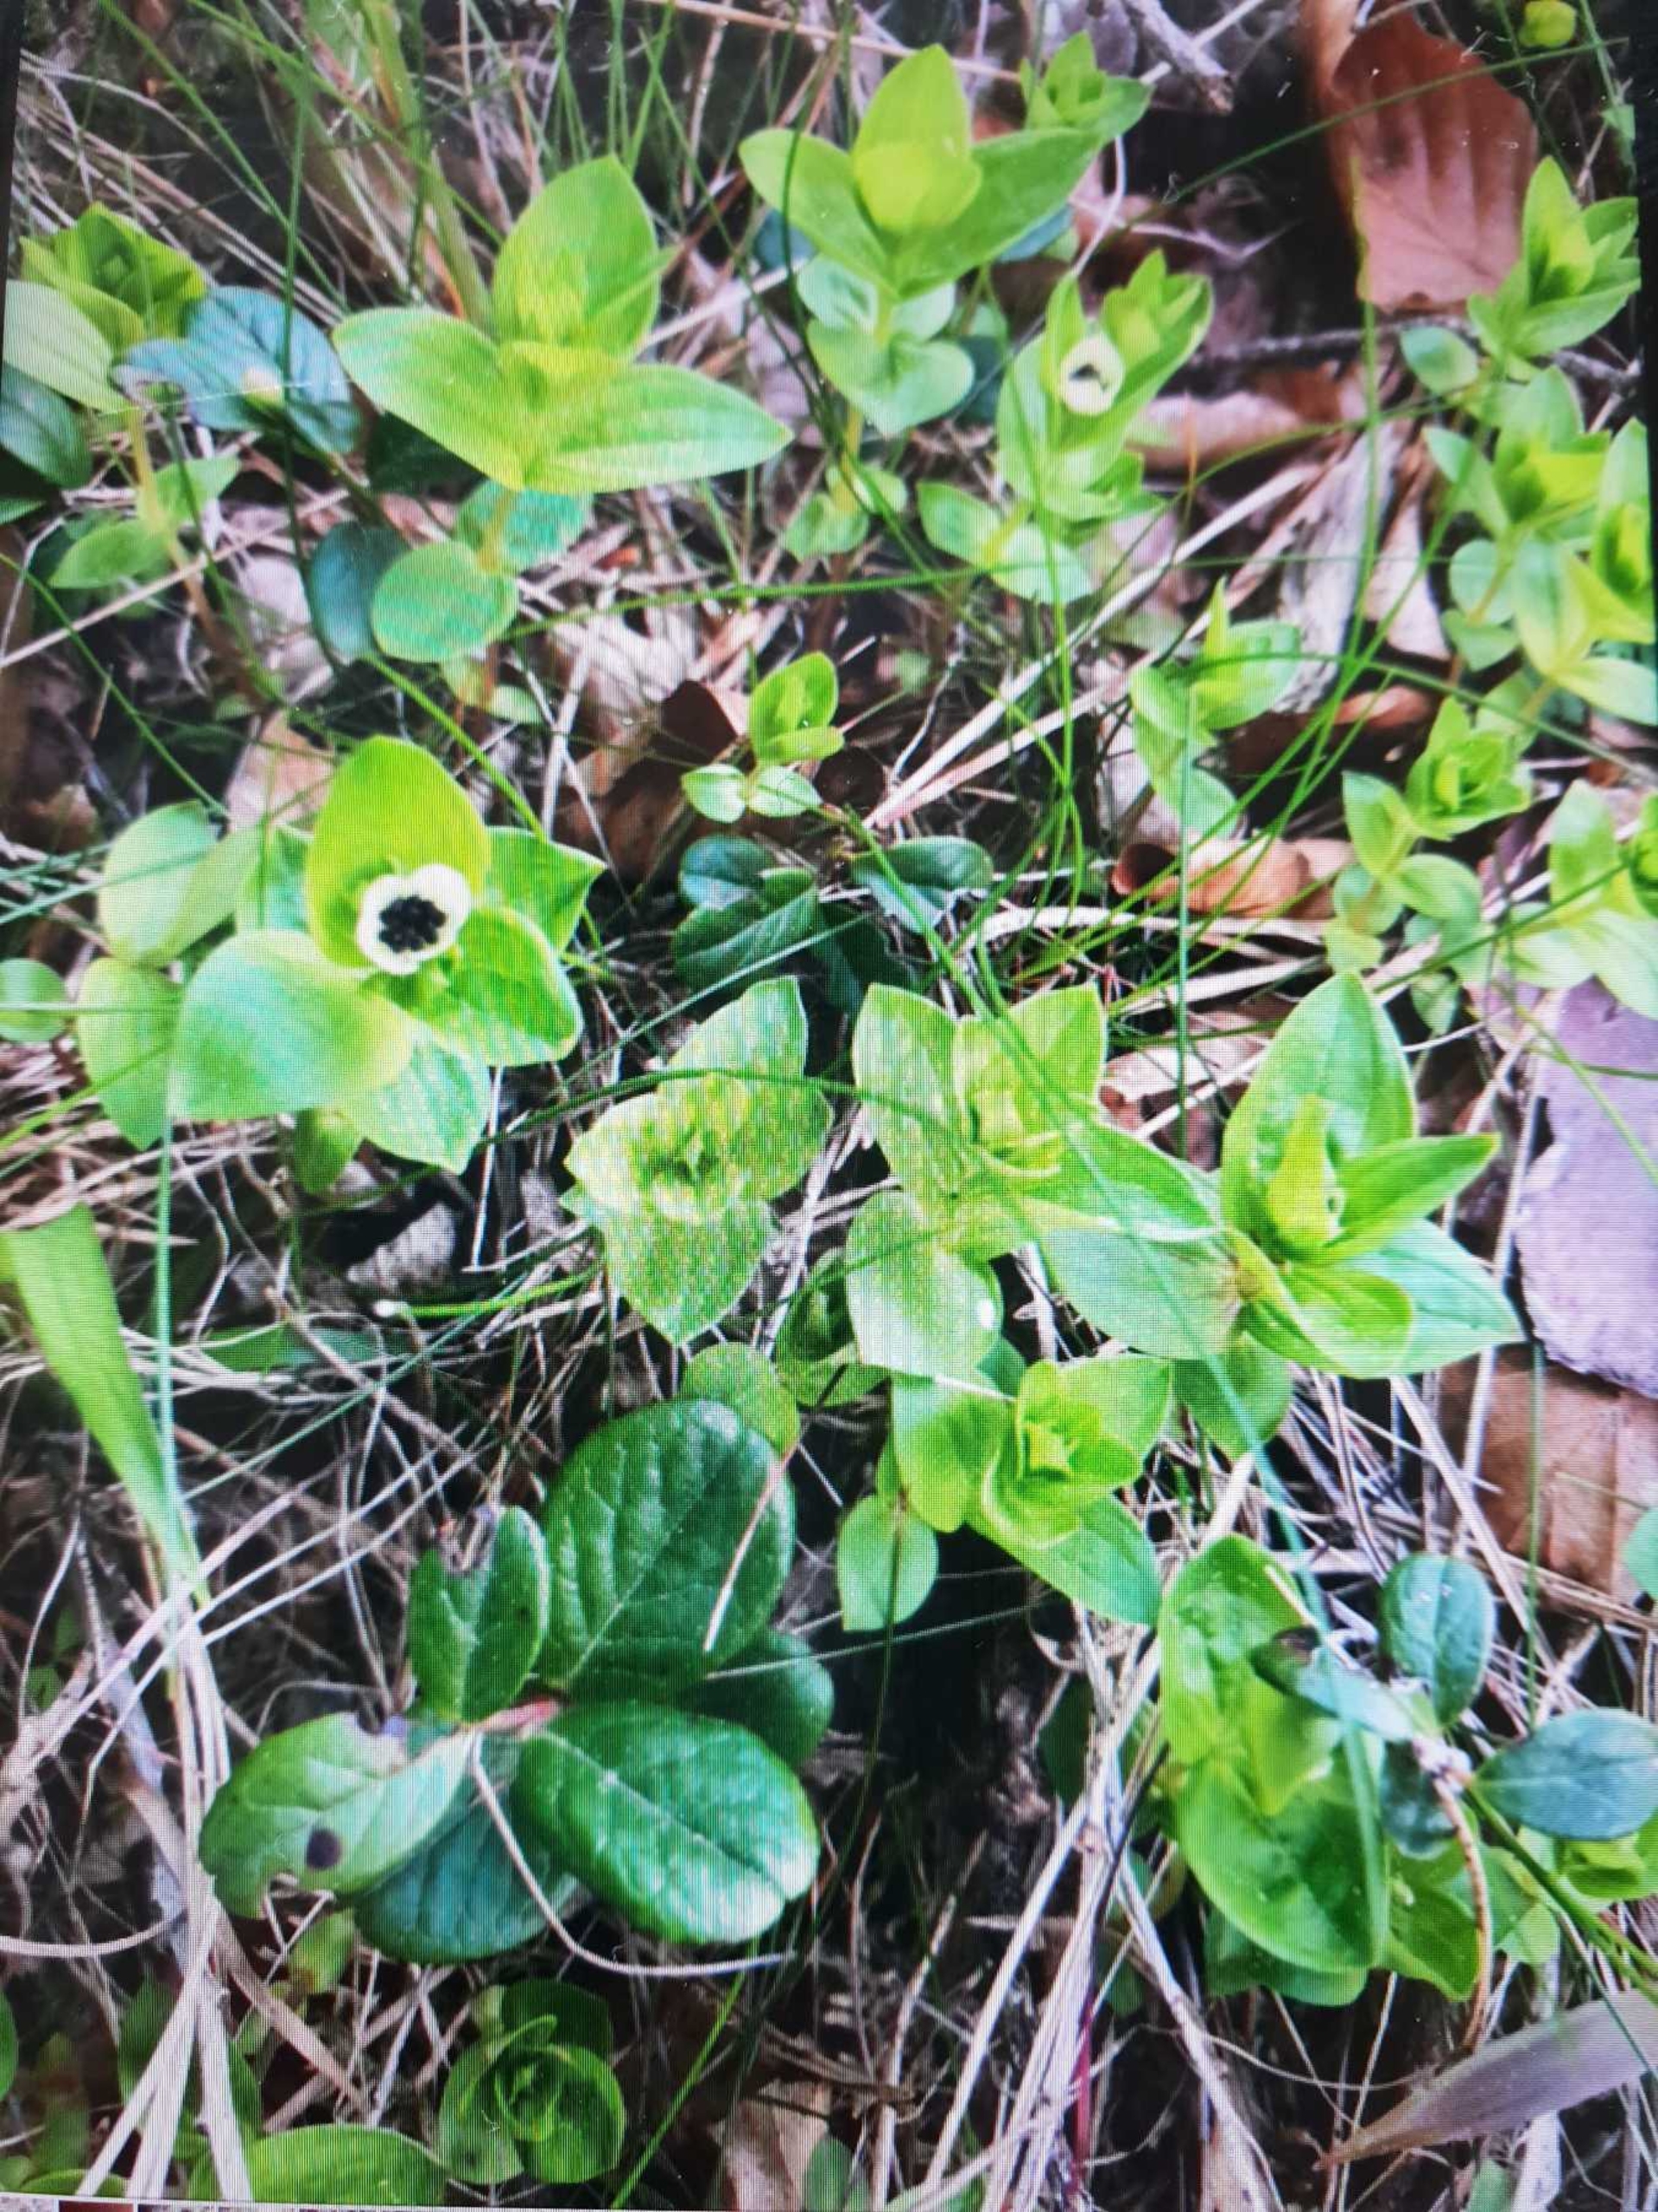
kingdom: Plantae
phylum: Tracheophyta
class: Magnoliopsida
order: Cornales
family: Cornaceae
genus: Cornus
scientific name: Cornus suecica
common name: Hønsebær
